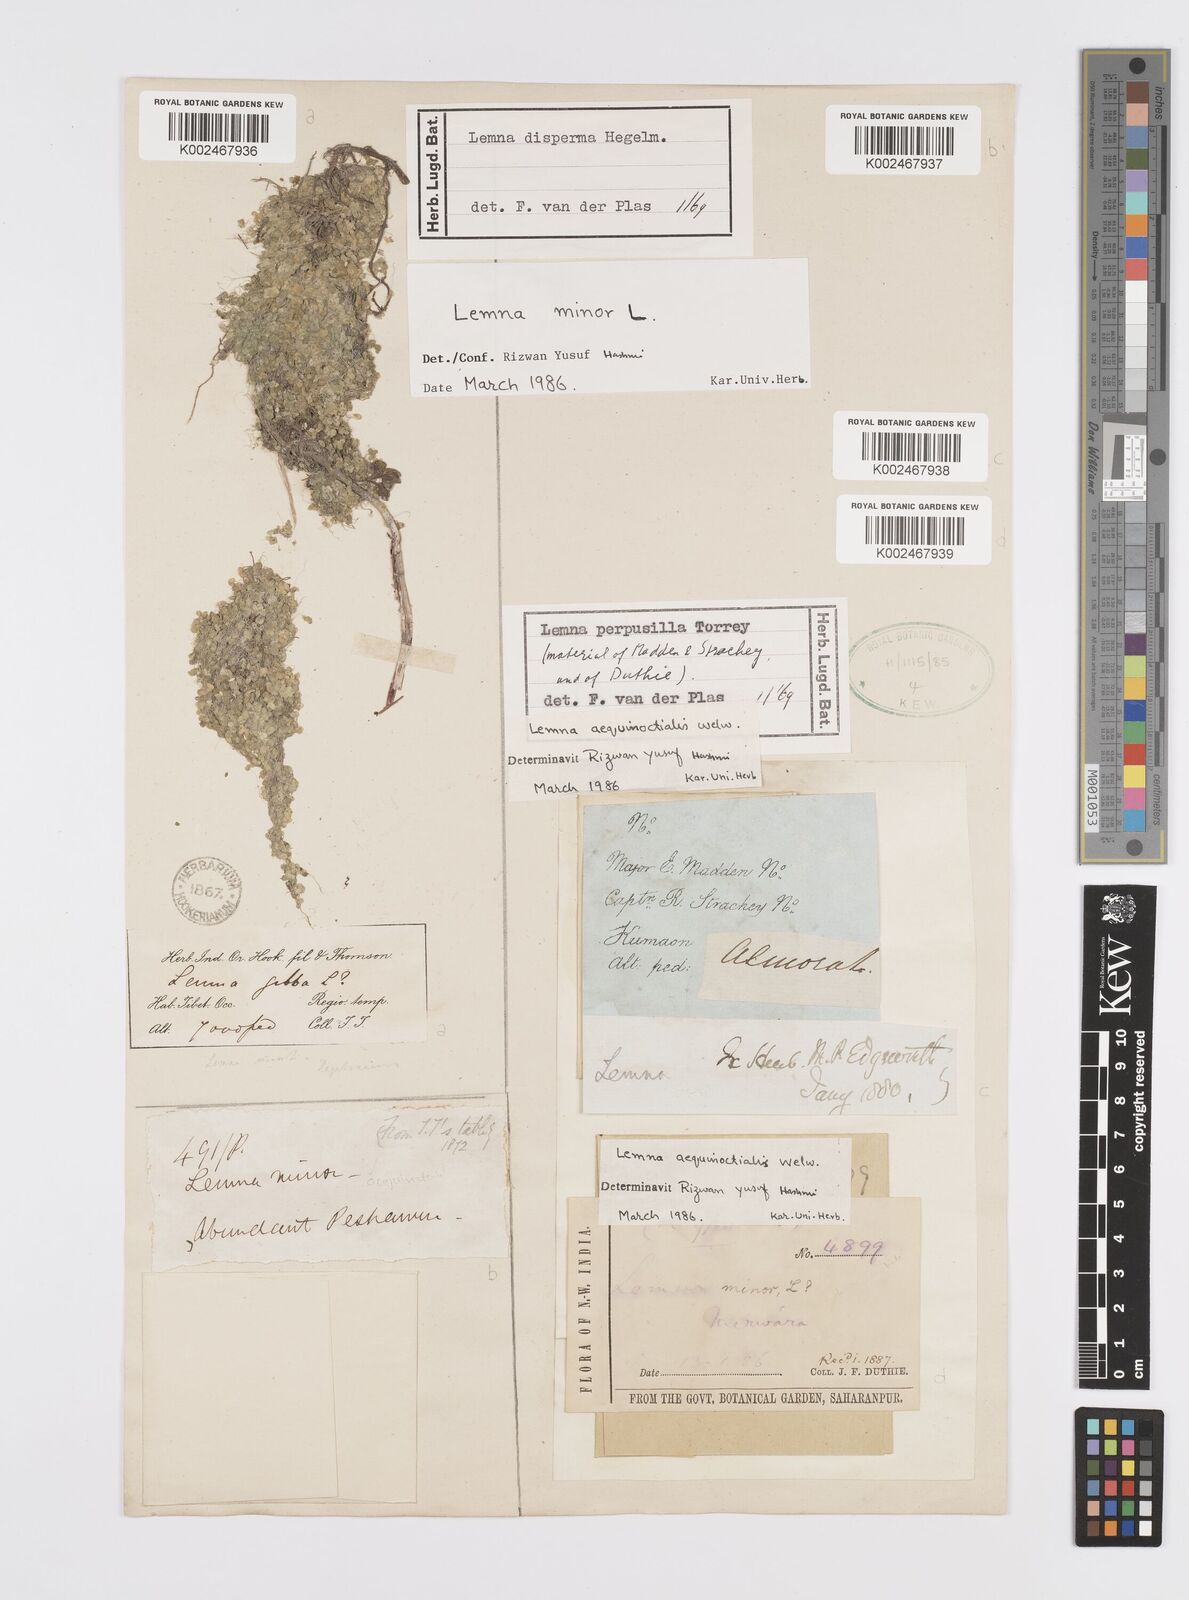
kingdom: Plantae
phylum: Tracheophyta
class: Liliopsida
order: Alismatales
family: Araceae
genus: Lemna
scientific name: Lemna minor
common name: Common duckweed
